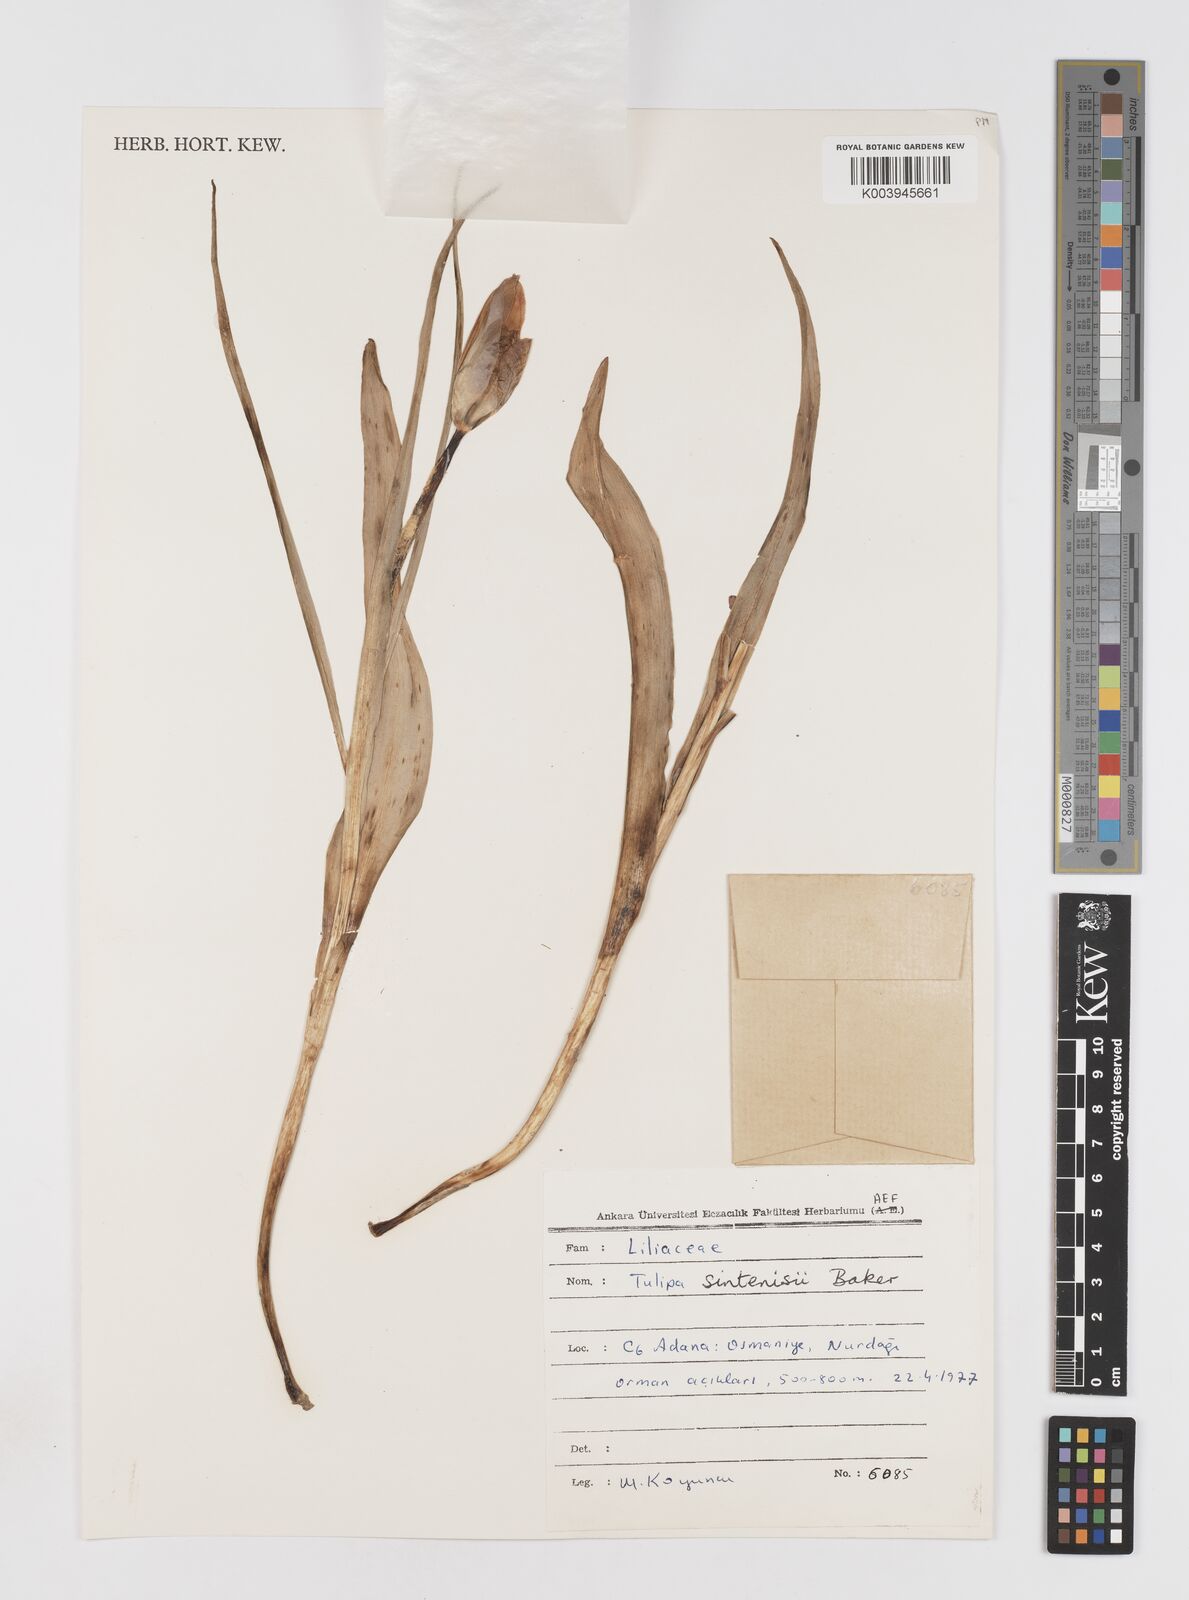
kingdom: Plantae
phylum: Tracheophyta
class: Liliopsida
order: Liliales
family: Liliaceae
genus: Tulipa
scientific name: Tulipa aleppensis
